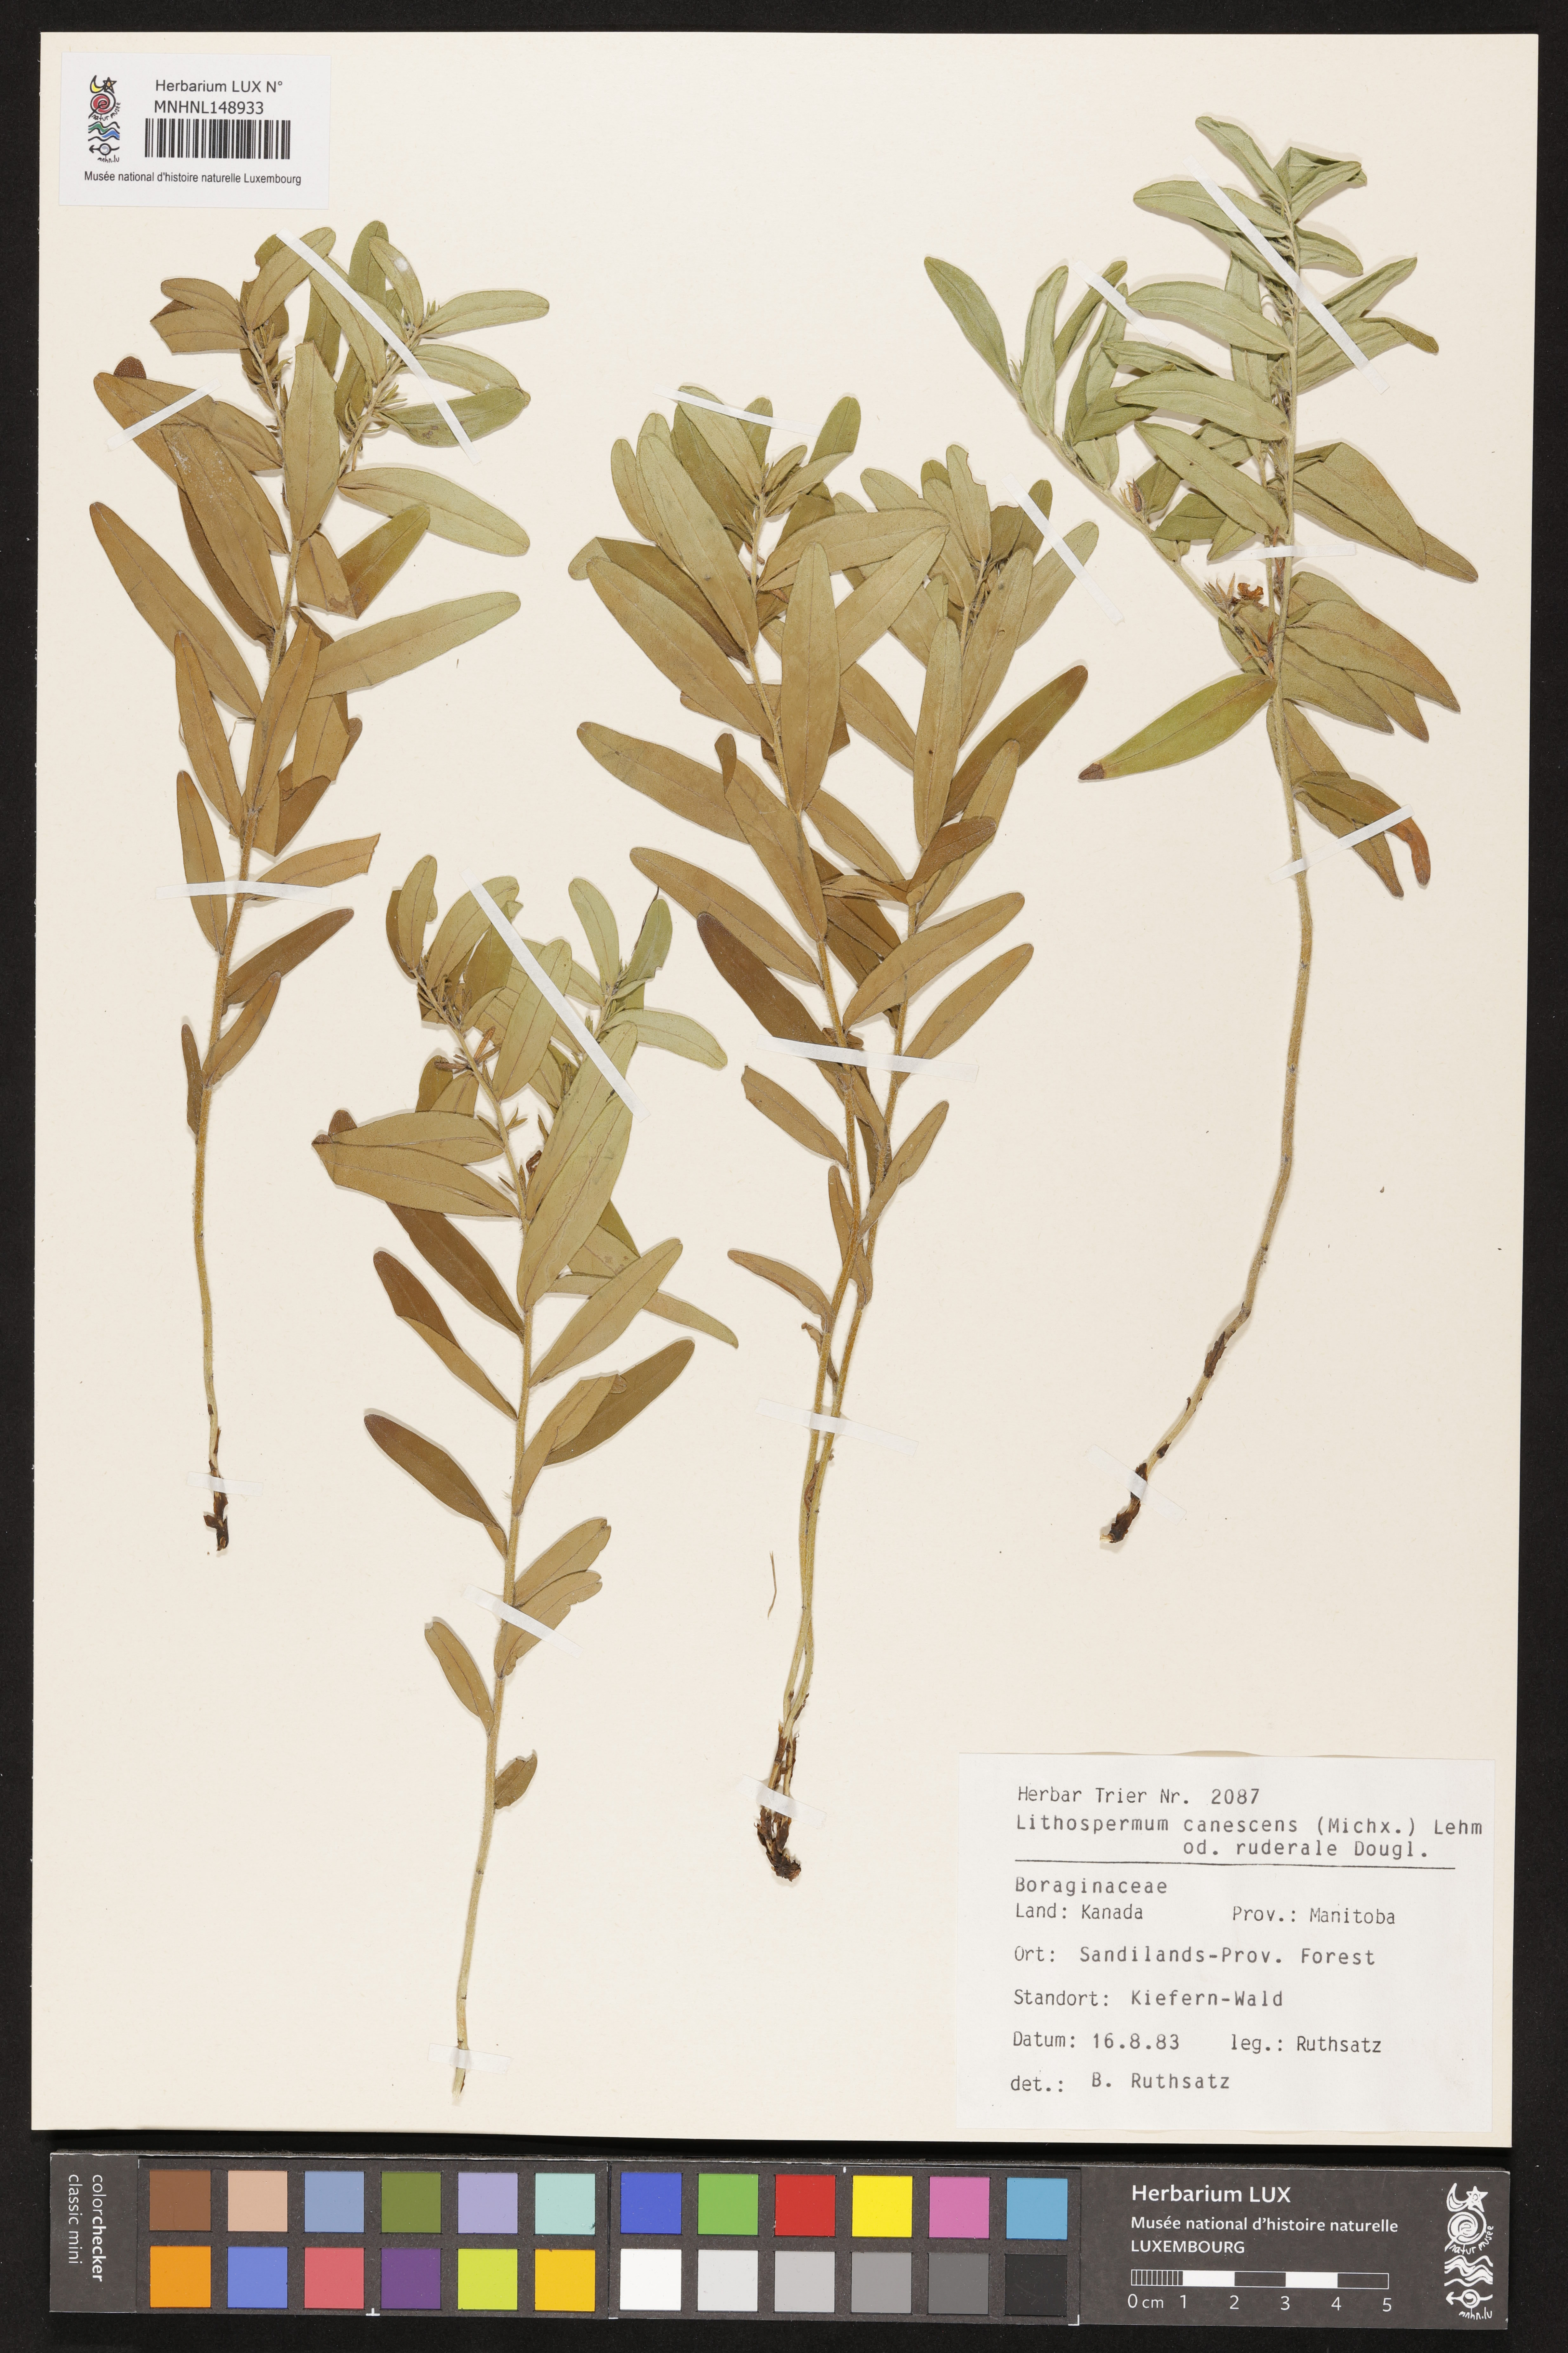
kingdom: Plantae
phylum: Tracheophyta
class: Magnoliopsida
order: Boraginales
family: Boraginaceae
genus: Lithospermum
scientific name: Lithospermum canescens
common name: Hoary puccoon
